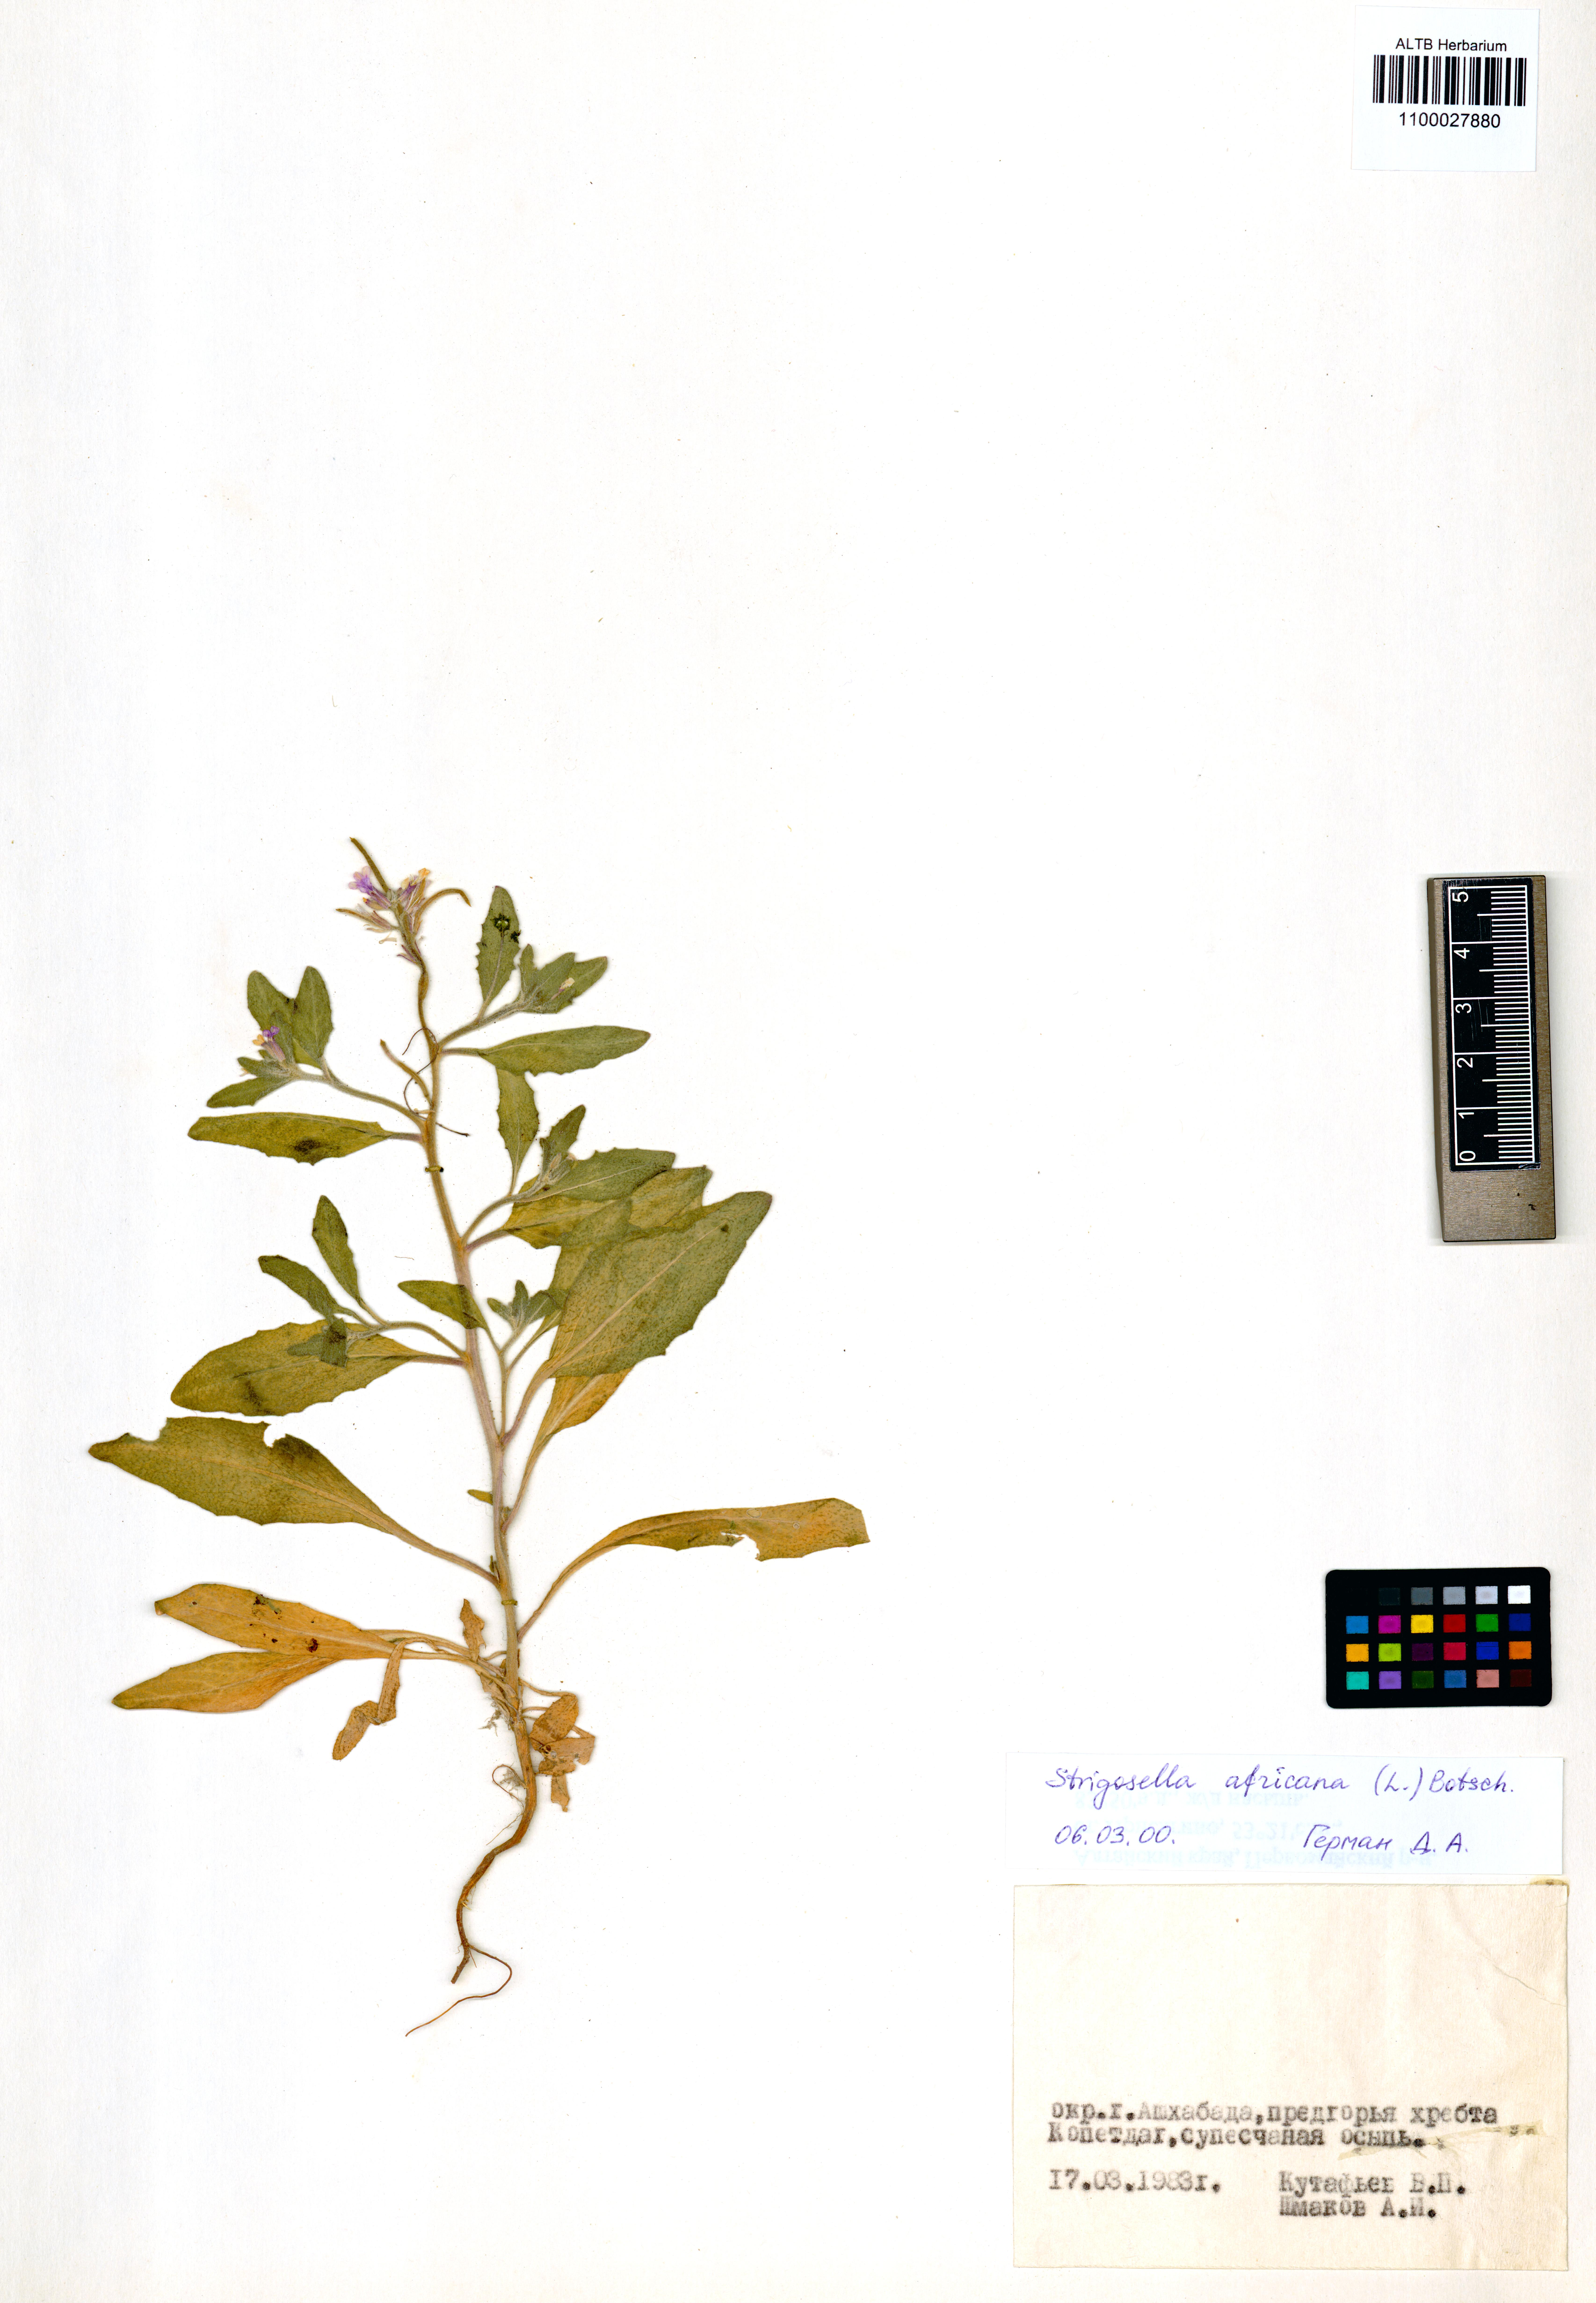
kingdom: Plantae
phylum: Tracheophyta
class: Magnoliopsida
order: Brassicales
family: Brassicaceae
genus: Strigosella
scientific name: Strigosella africana
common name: African mustard
